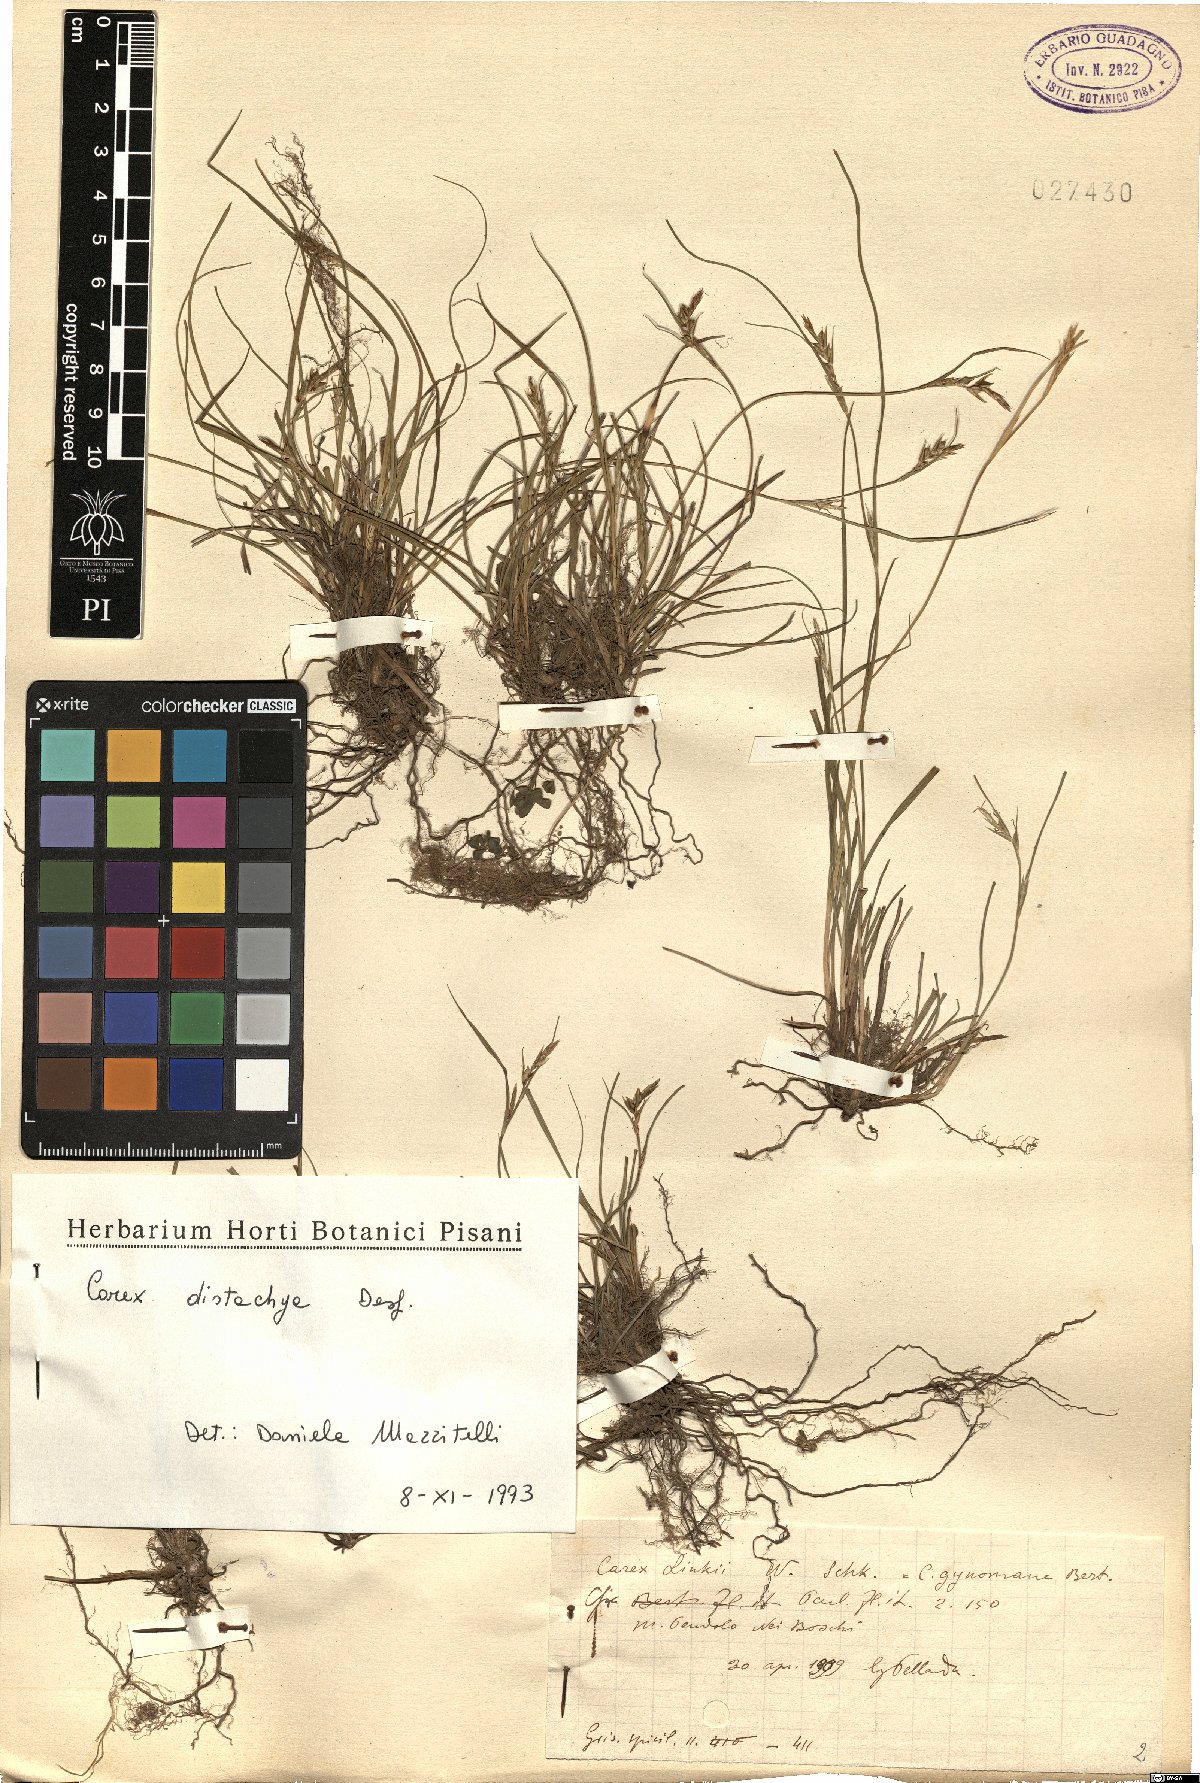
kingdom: Plantae
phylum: Tracheophyta
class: Liliopsida
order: Poales
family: Cyperaceae
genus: Carex
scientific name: Carex distachya
